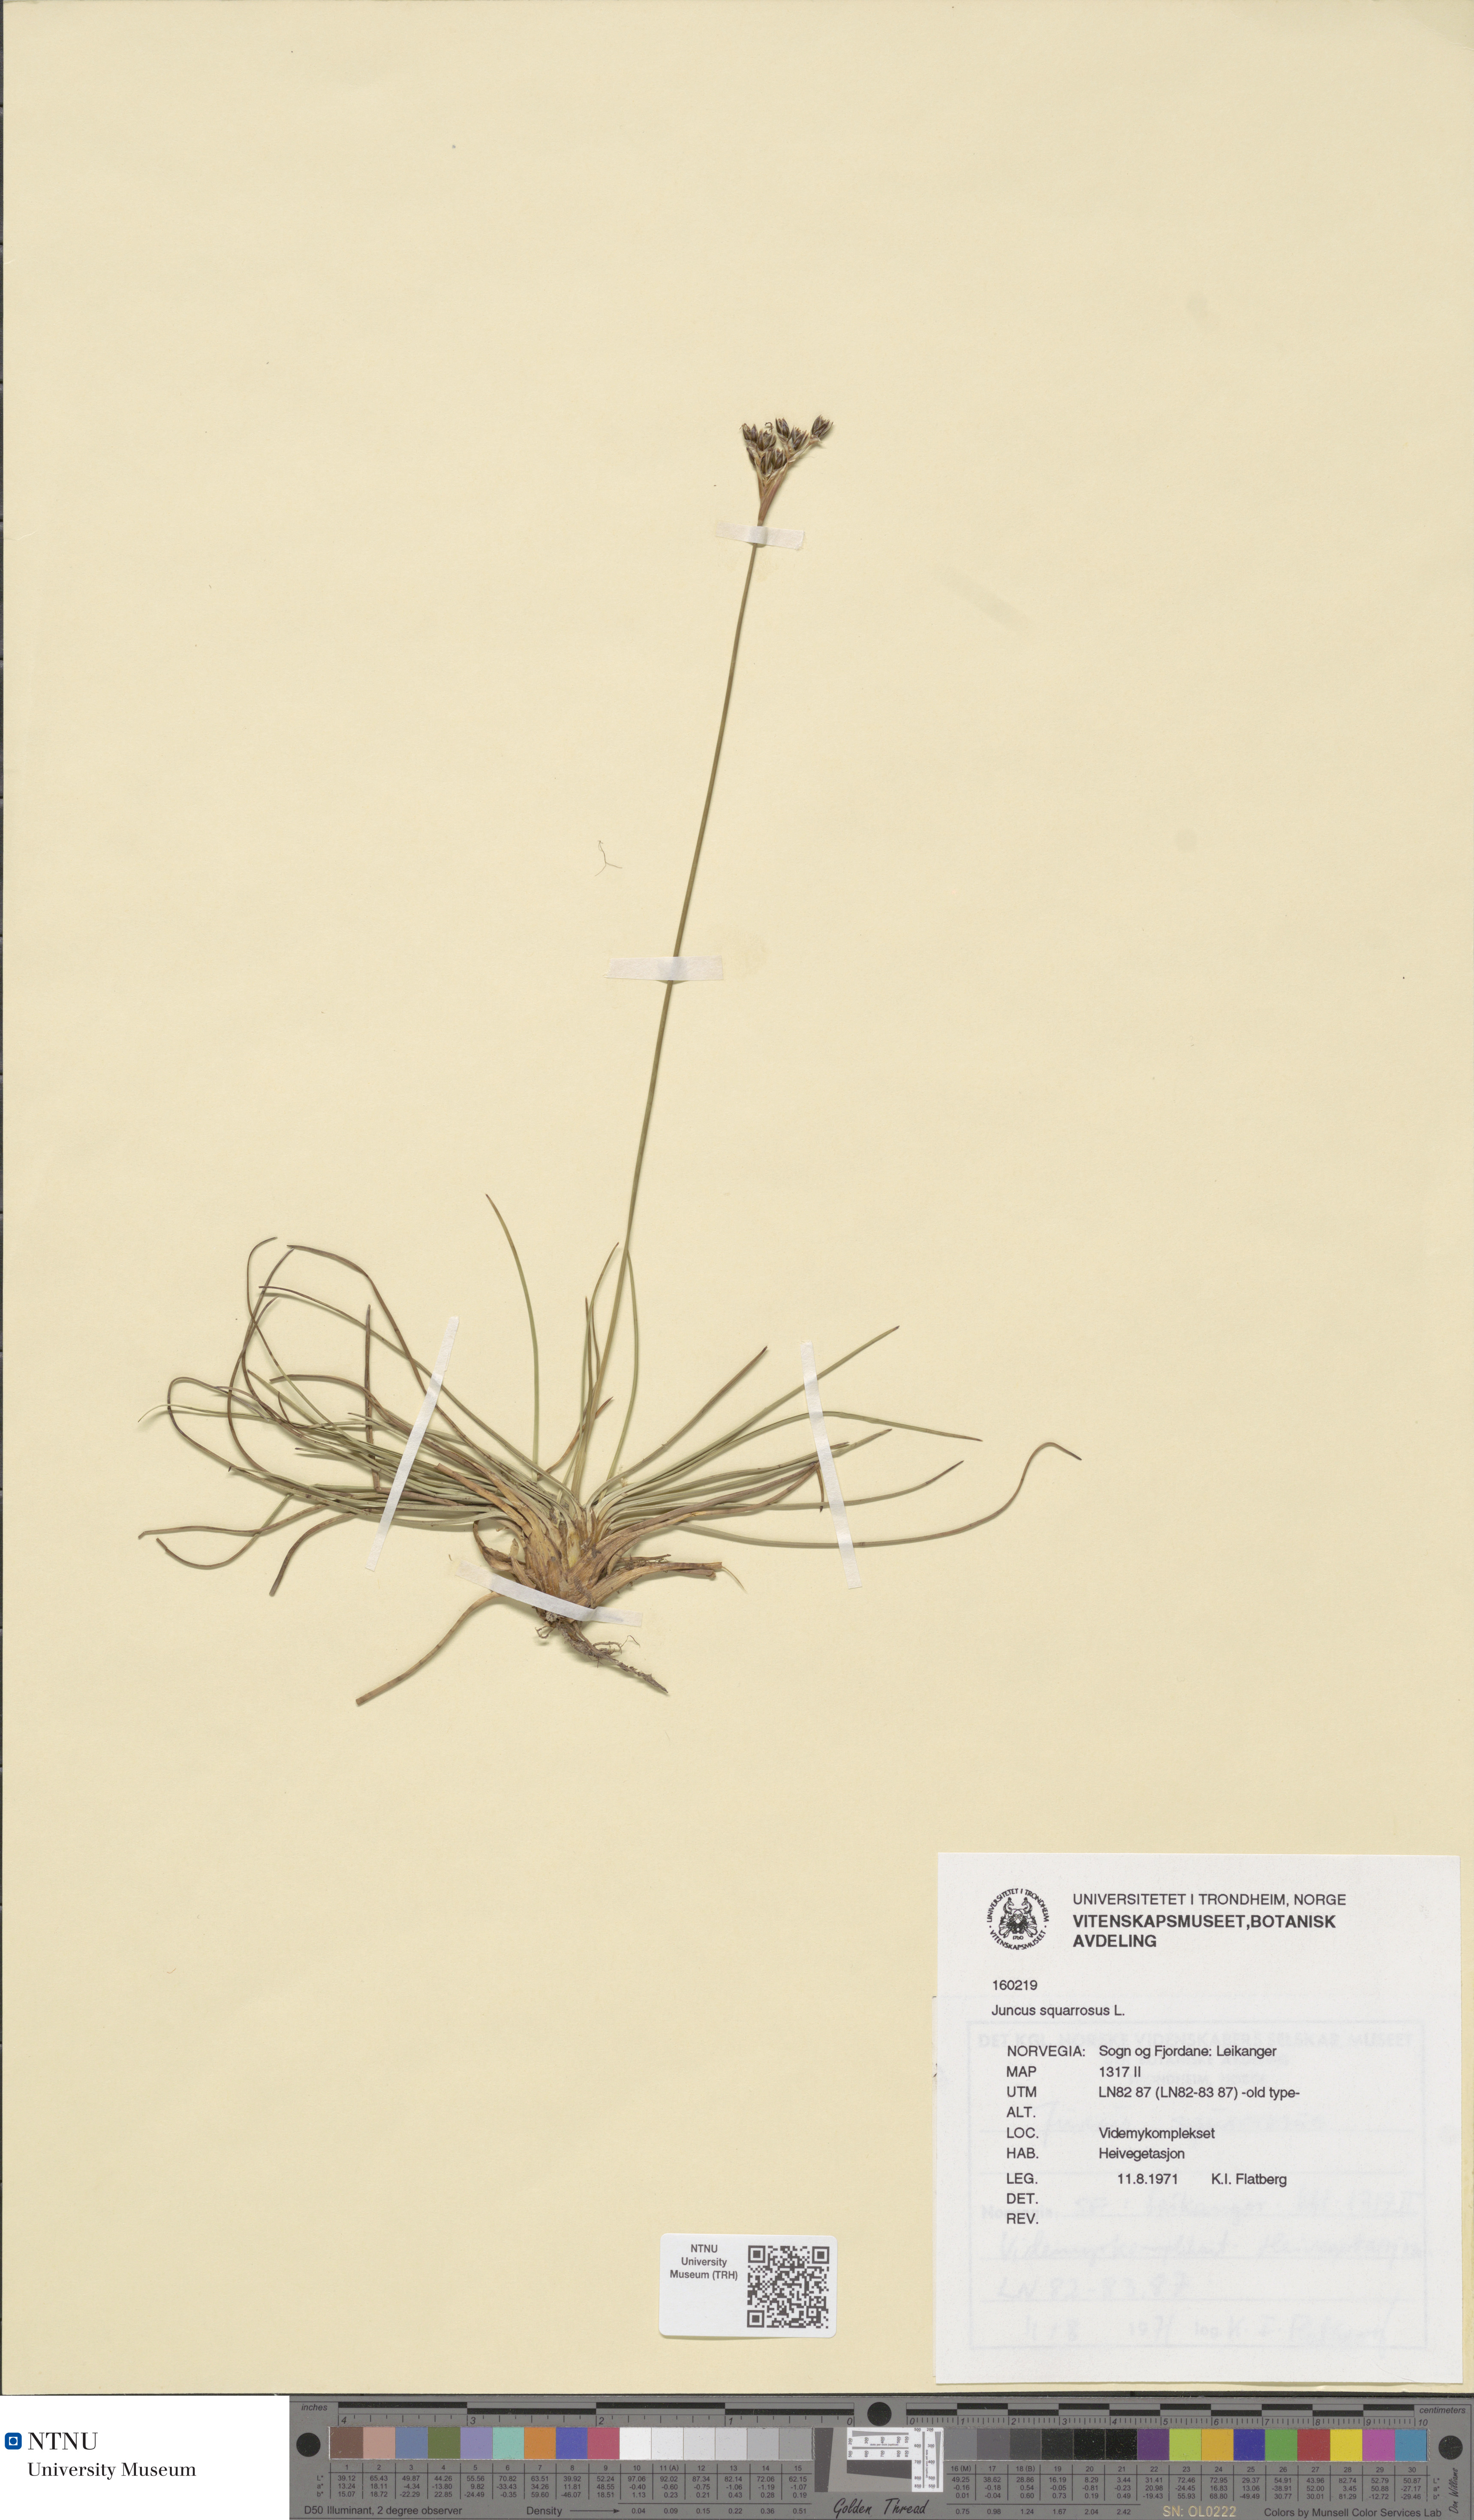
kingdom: Plantae
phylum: Tracheophyta
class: Liliopsida
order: Poales
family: Juncaceae
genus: Juncus
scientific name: Juncus squarrosus
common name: Heath rush
